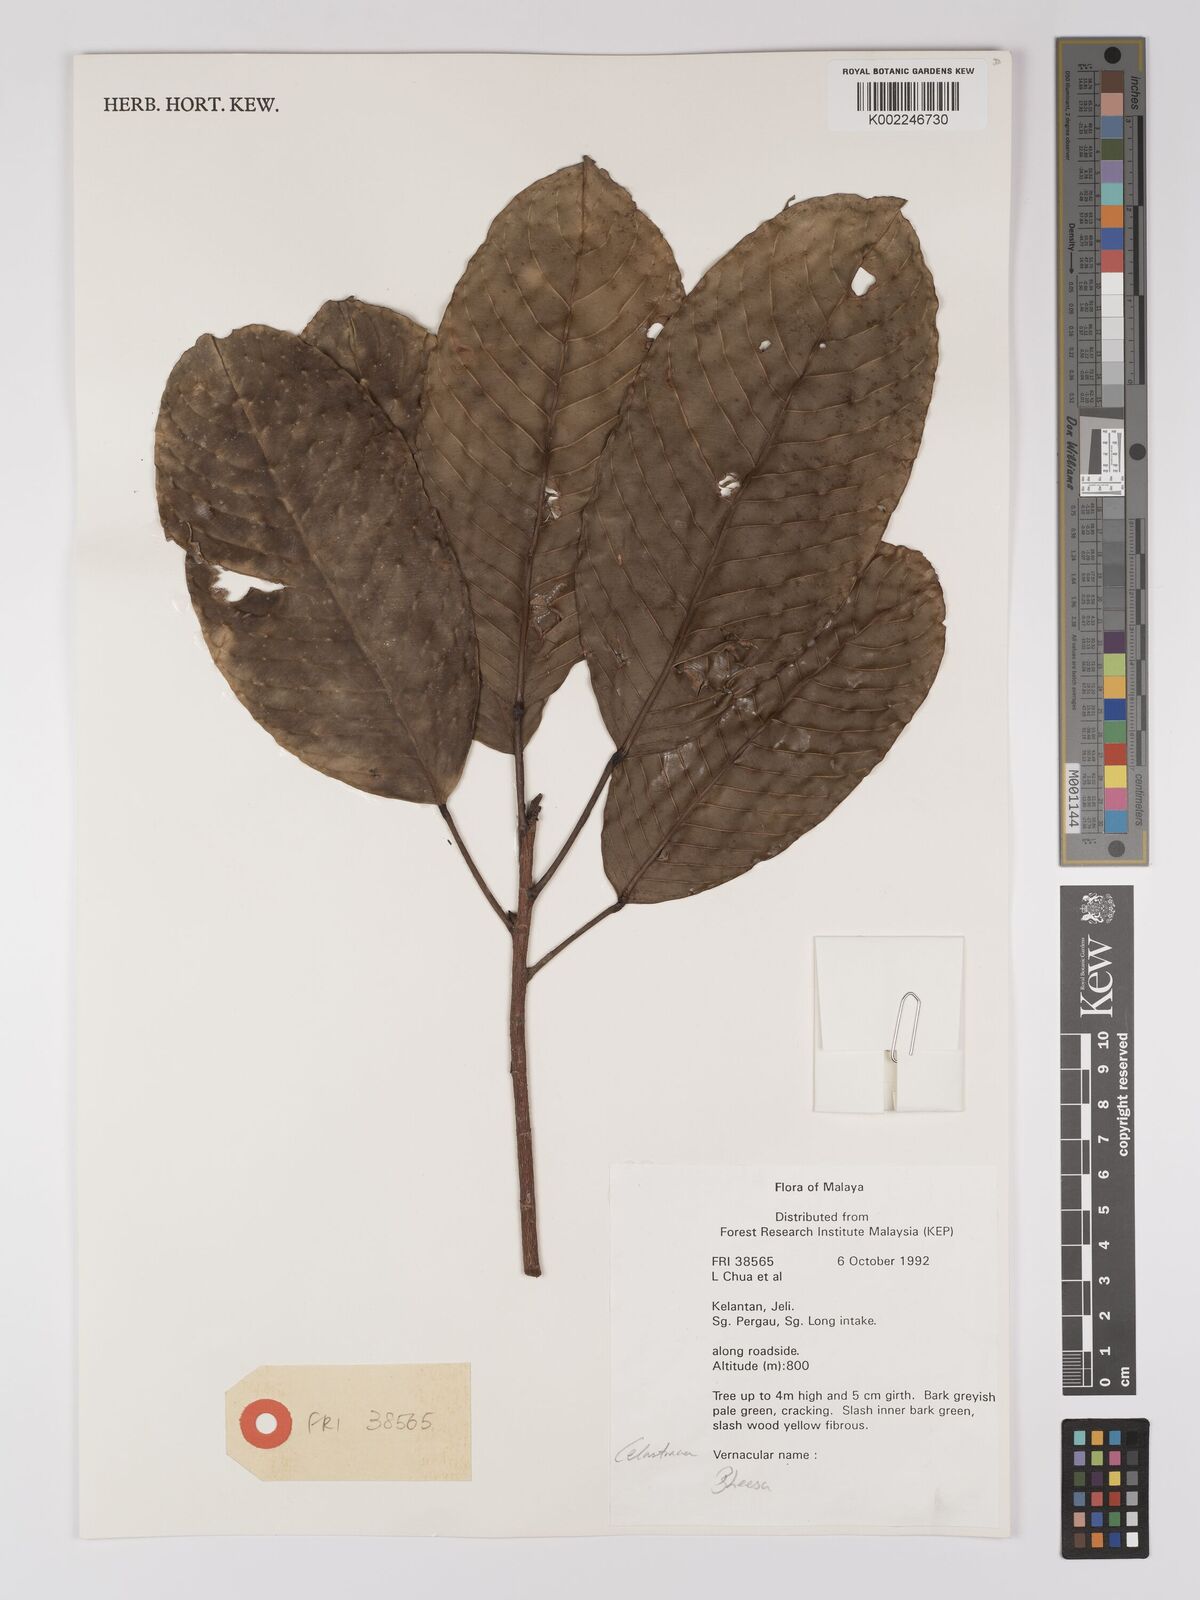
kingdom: Plantae
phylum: Tracheophyta
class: Magnoliopsida
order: Malpighiales
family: Centroplacaceae
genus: Bhesa
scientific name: Bhesa
